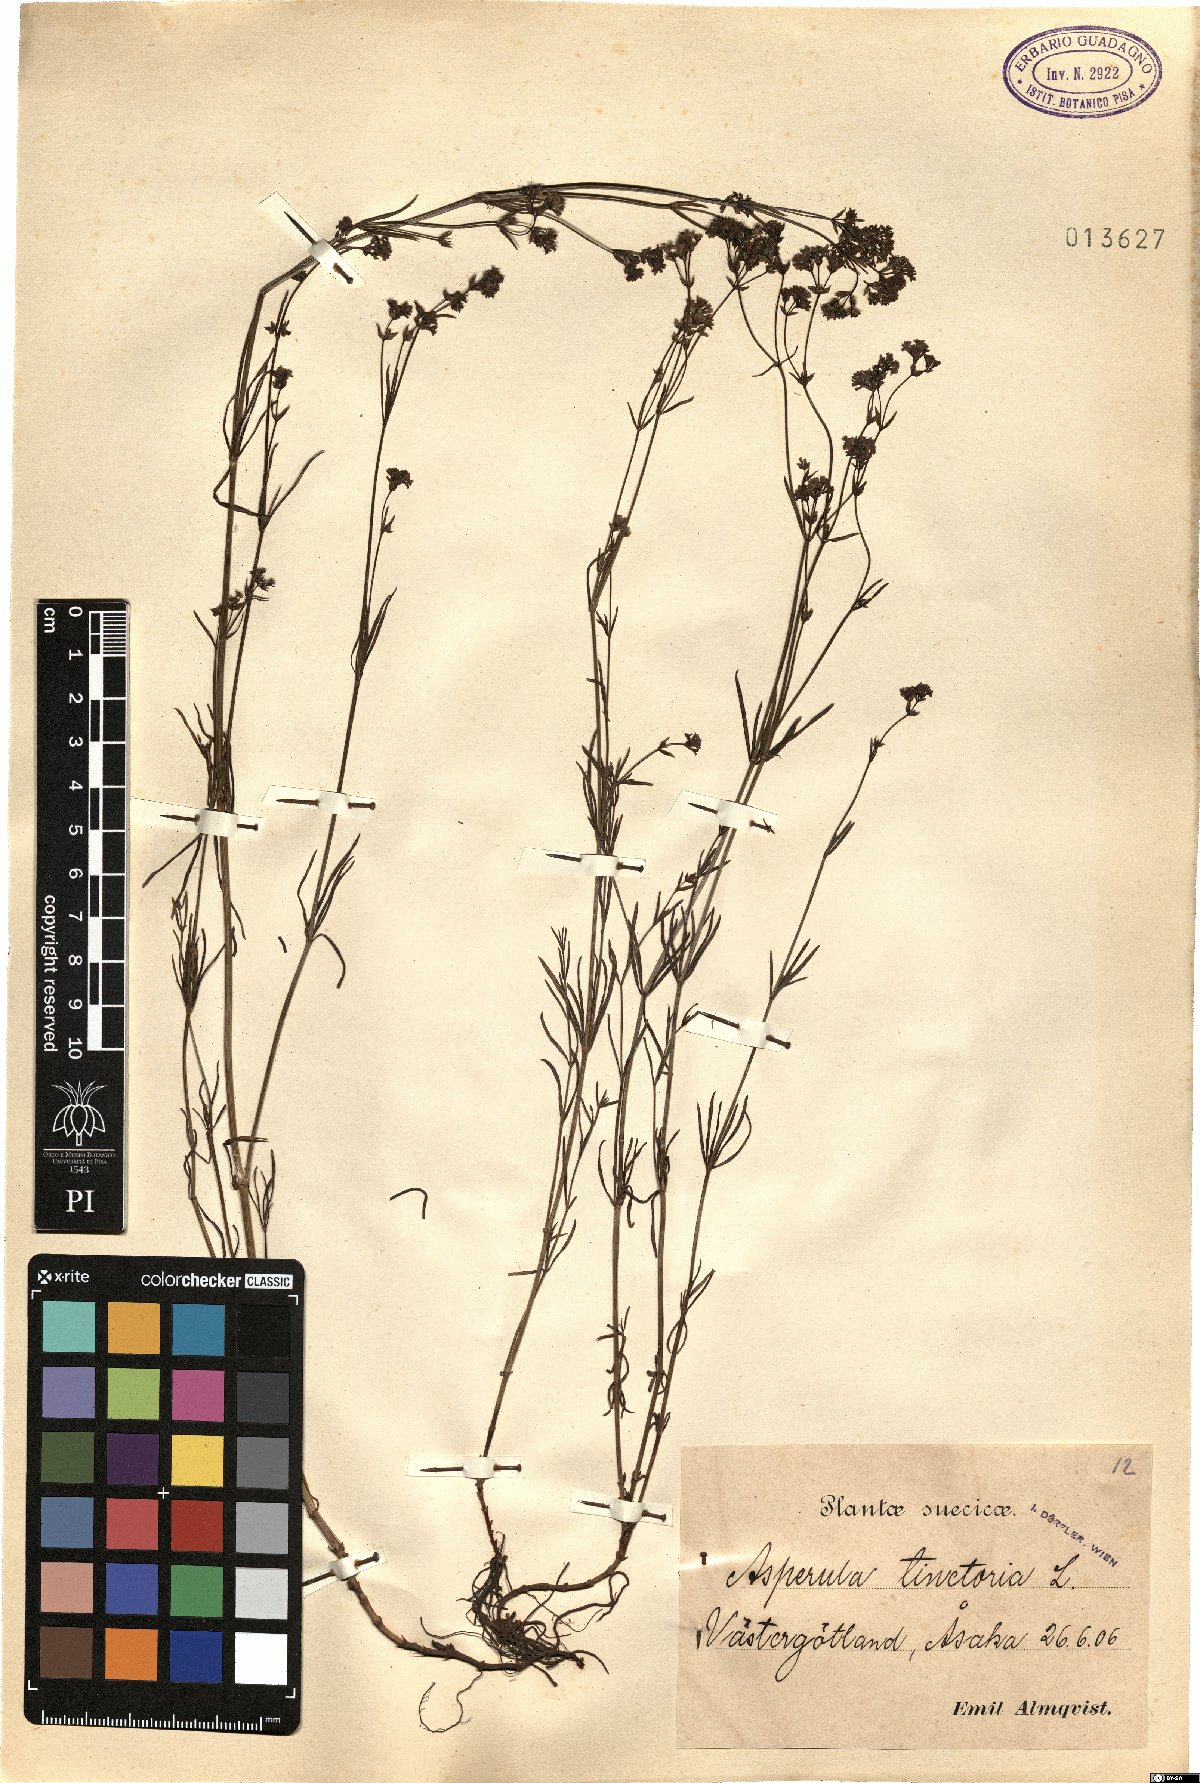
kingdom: Plantae
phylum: Tracheophyta
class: Magnoliopsida
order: Gentianales
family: Rubiaceae
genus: Asperula
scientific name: Asperula tinctoria
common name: Dyer's woodruff
